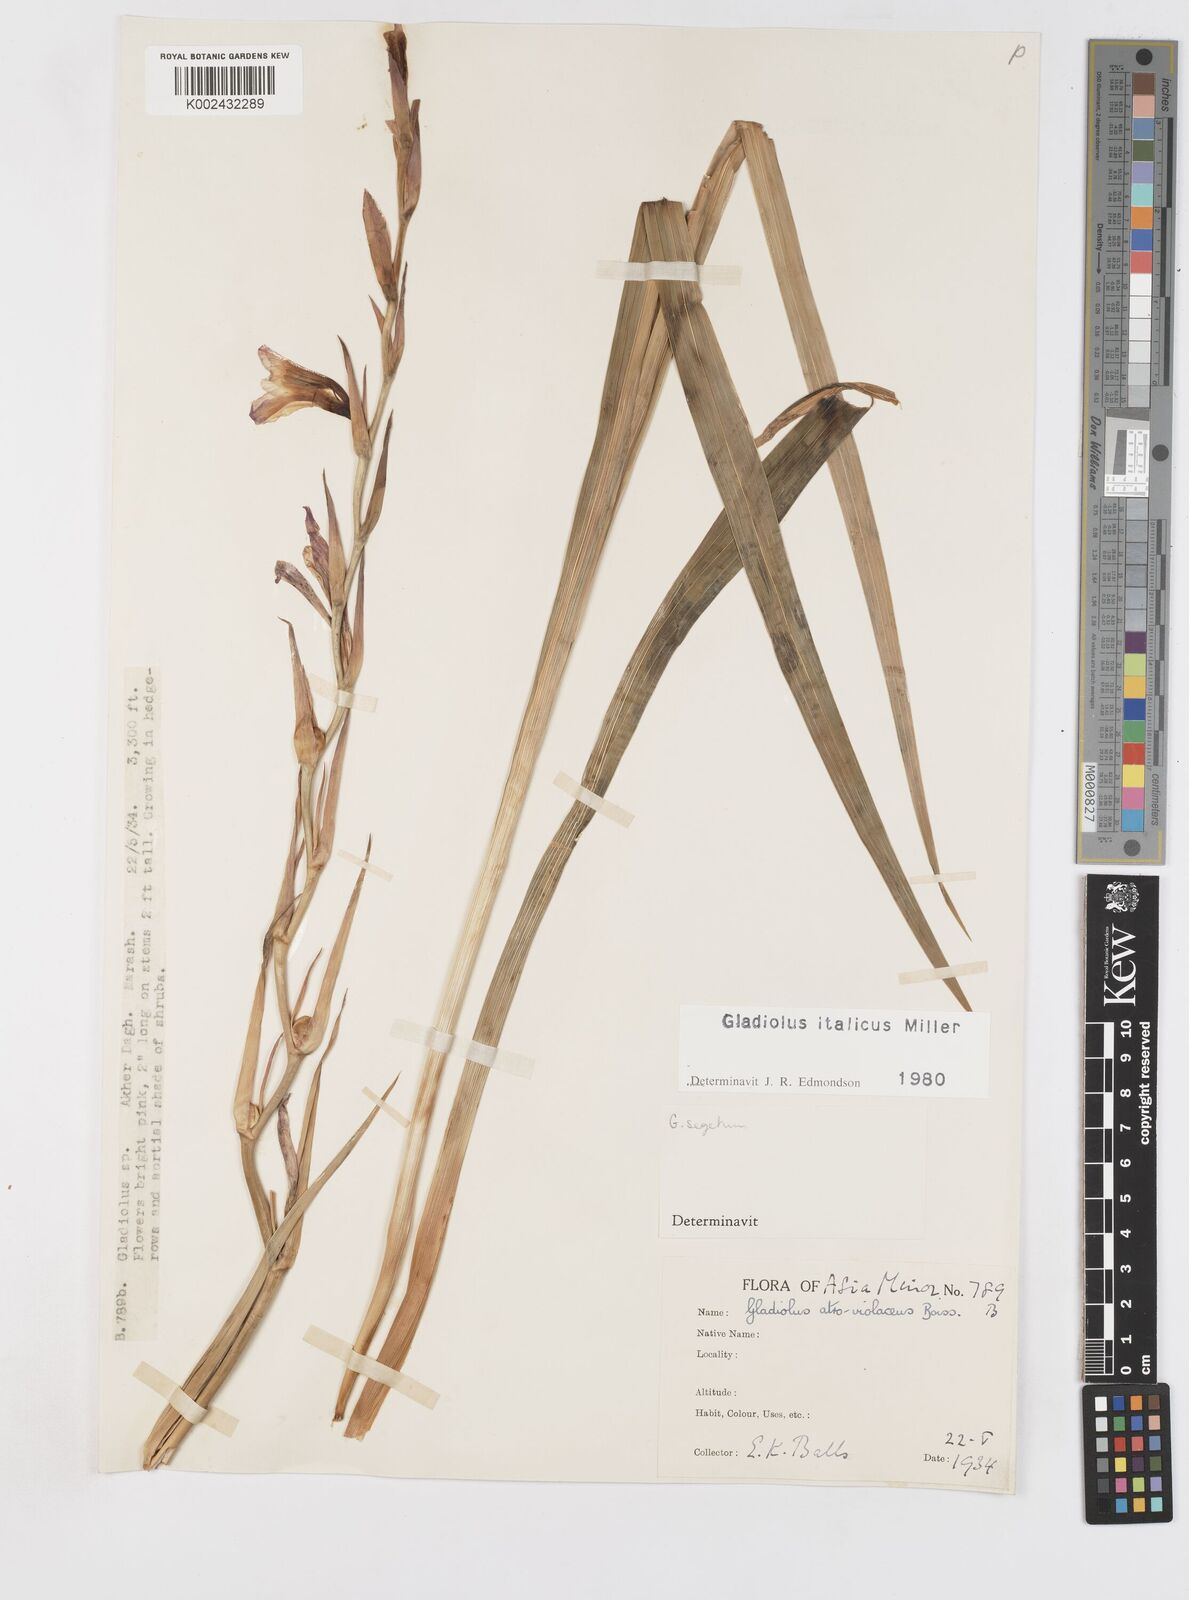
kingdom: Plantae
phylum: Tracheophyta
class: Liliopsida
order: Asparagales
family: Iridaceae
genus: Gladiolus
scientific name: Gladiolus italicus
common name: Field gladiolus
